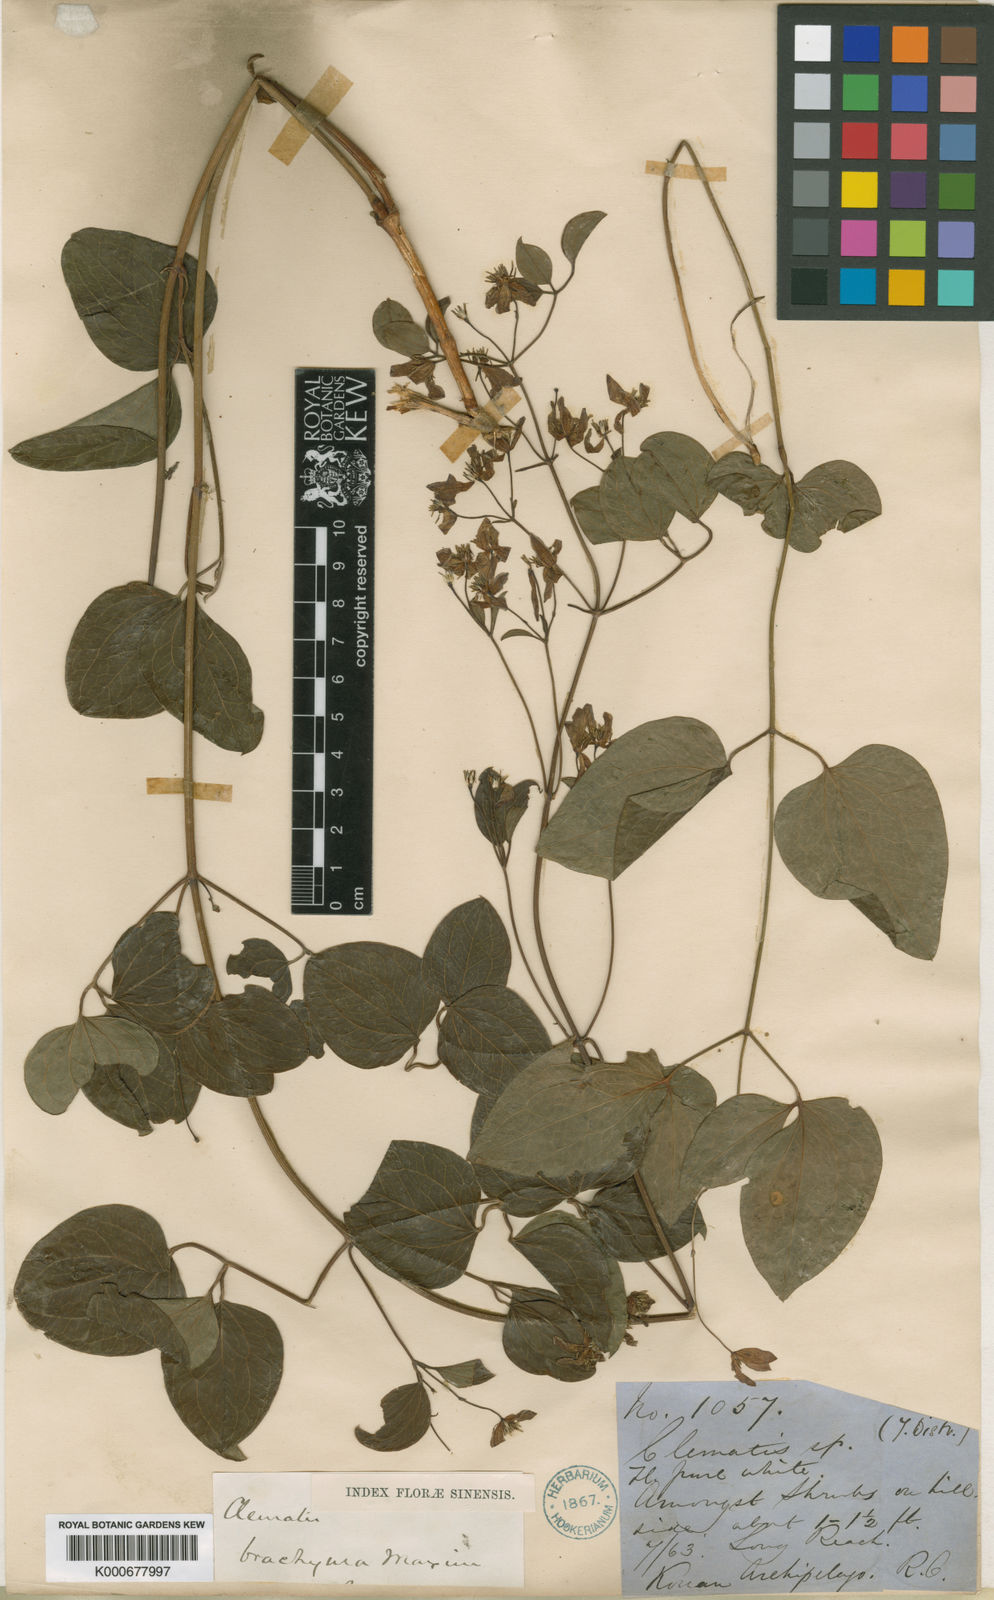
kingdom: Plantae
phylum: Tracheophyta
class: Magnoliopsida
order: Ranunculales
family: Ranunculaceae
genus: Clematis
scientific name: Clematis brachyura
